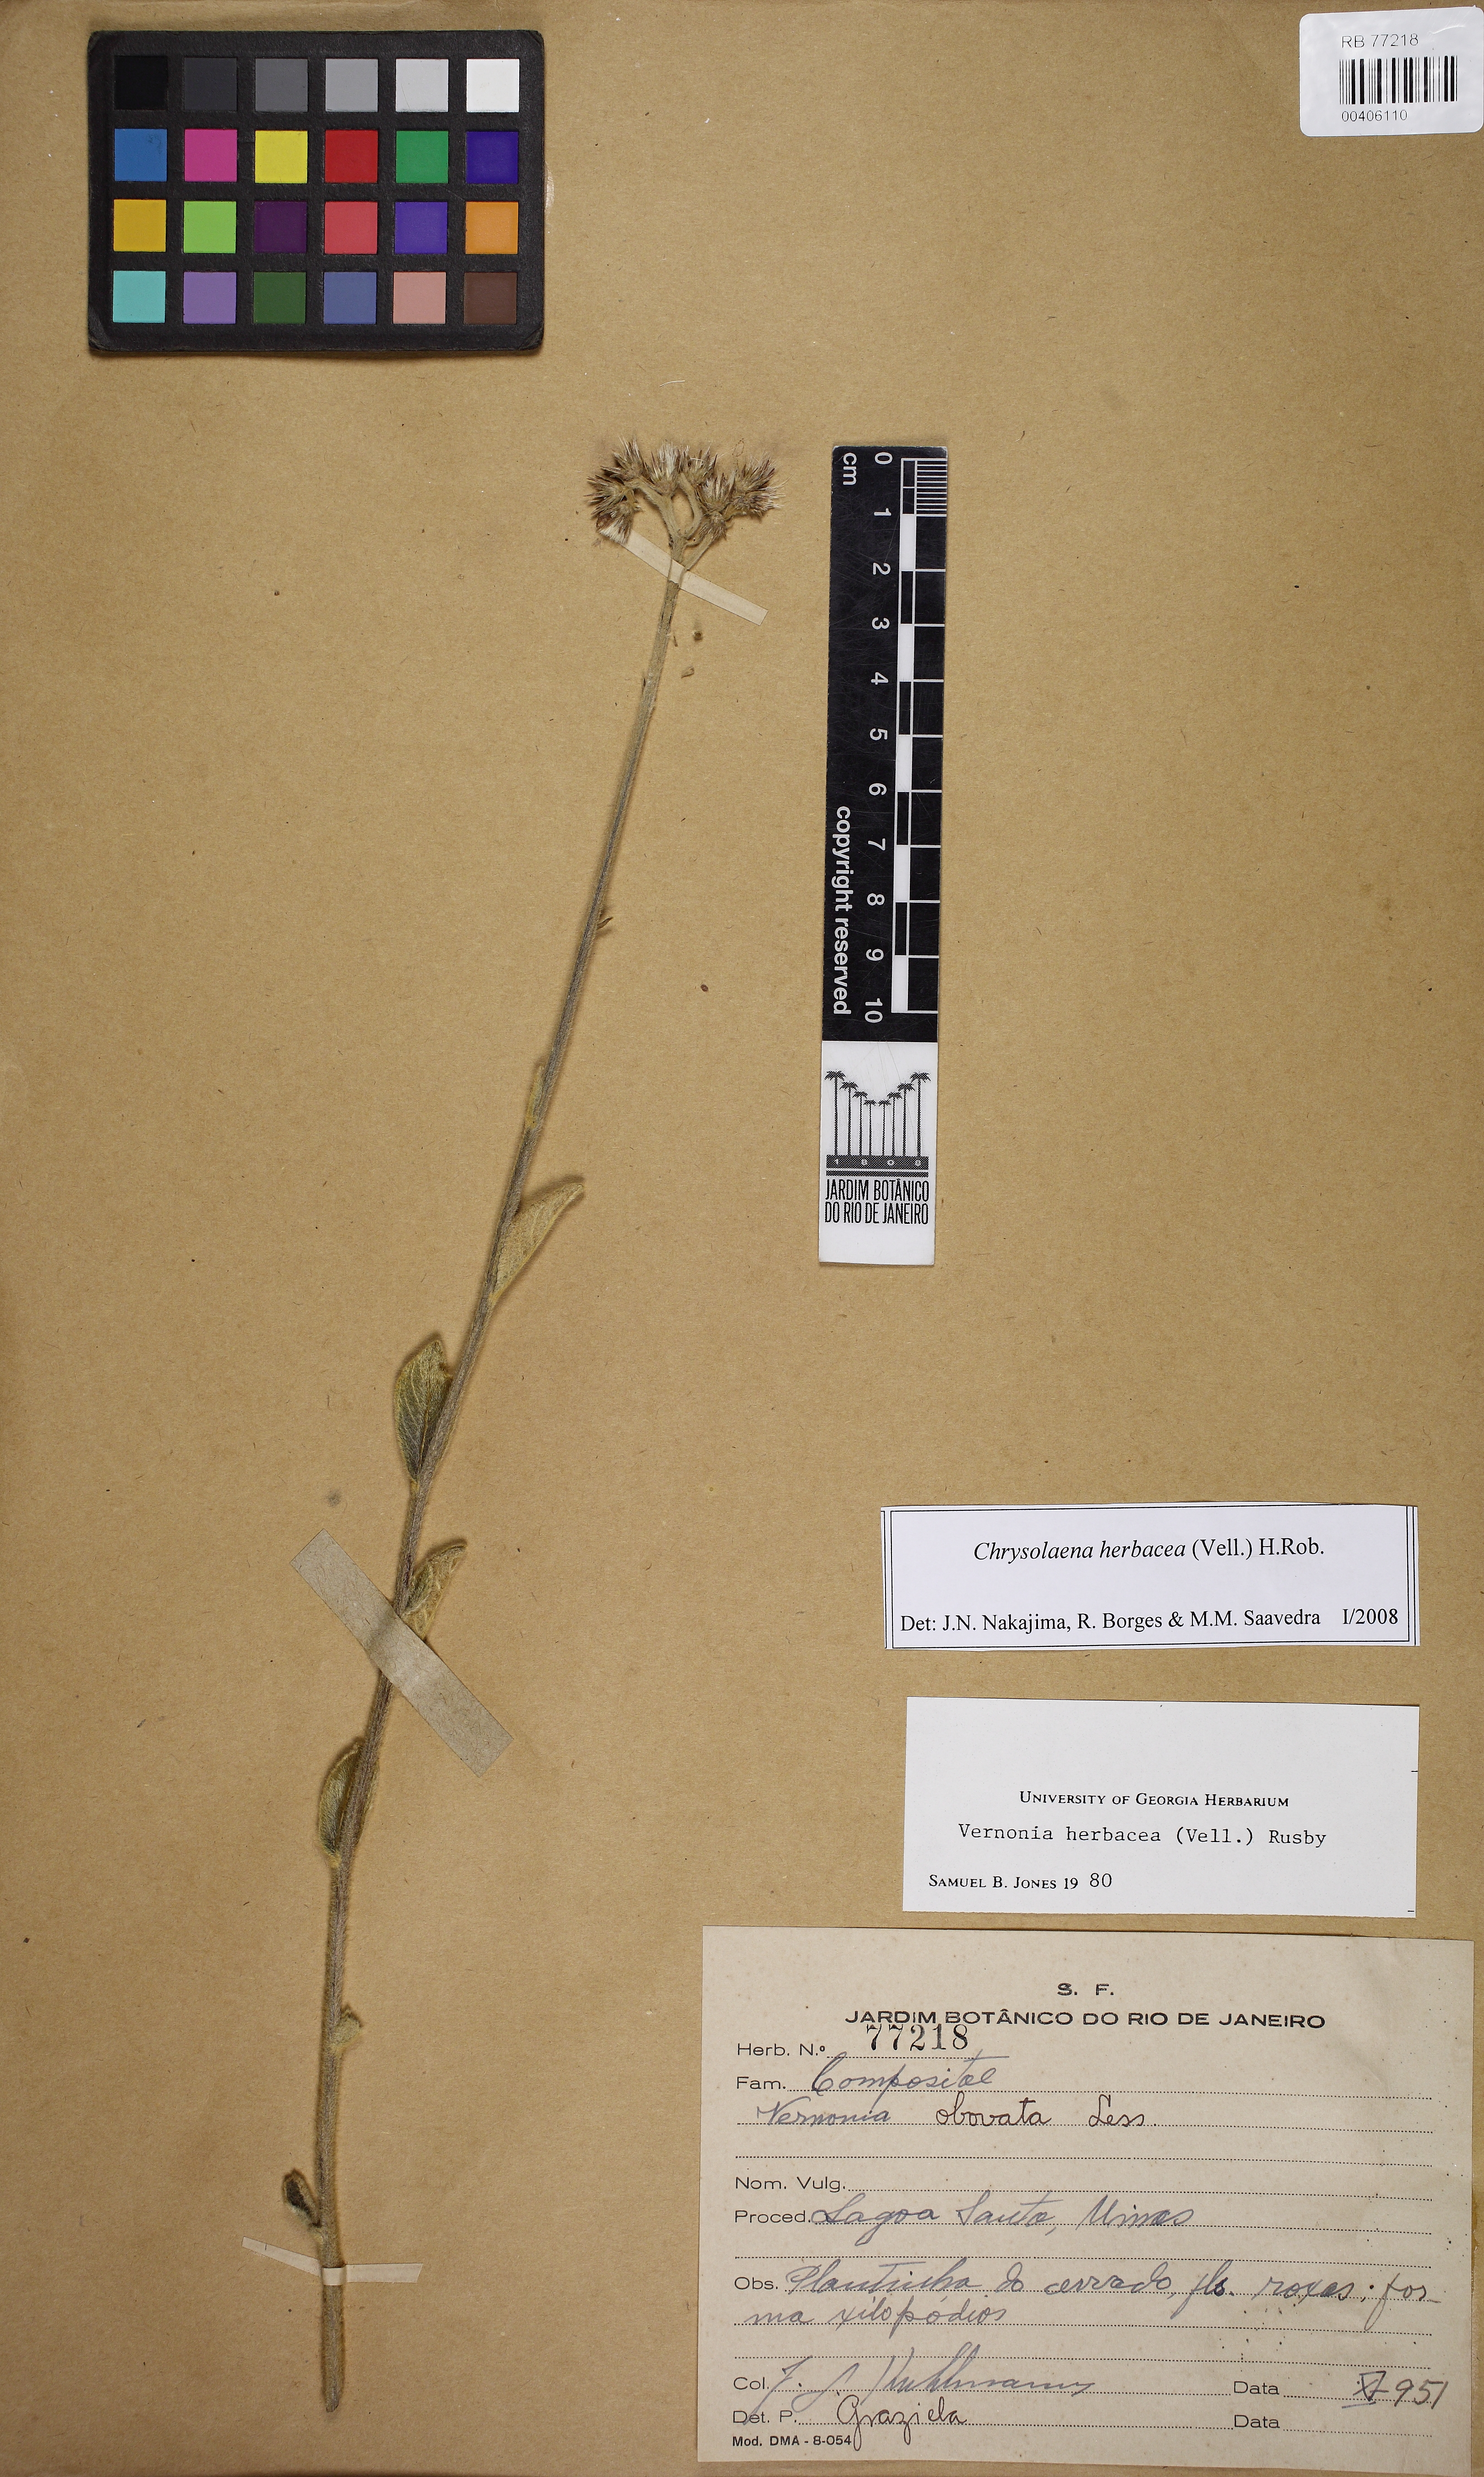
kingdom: Plantae
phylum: Tracheophyta
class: Magnoliopsida
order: Asterales
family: Asteraceae
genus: Chrysolaena
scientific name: Chrysolaena obovata
